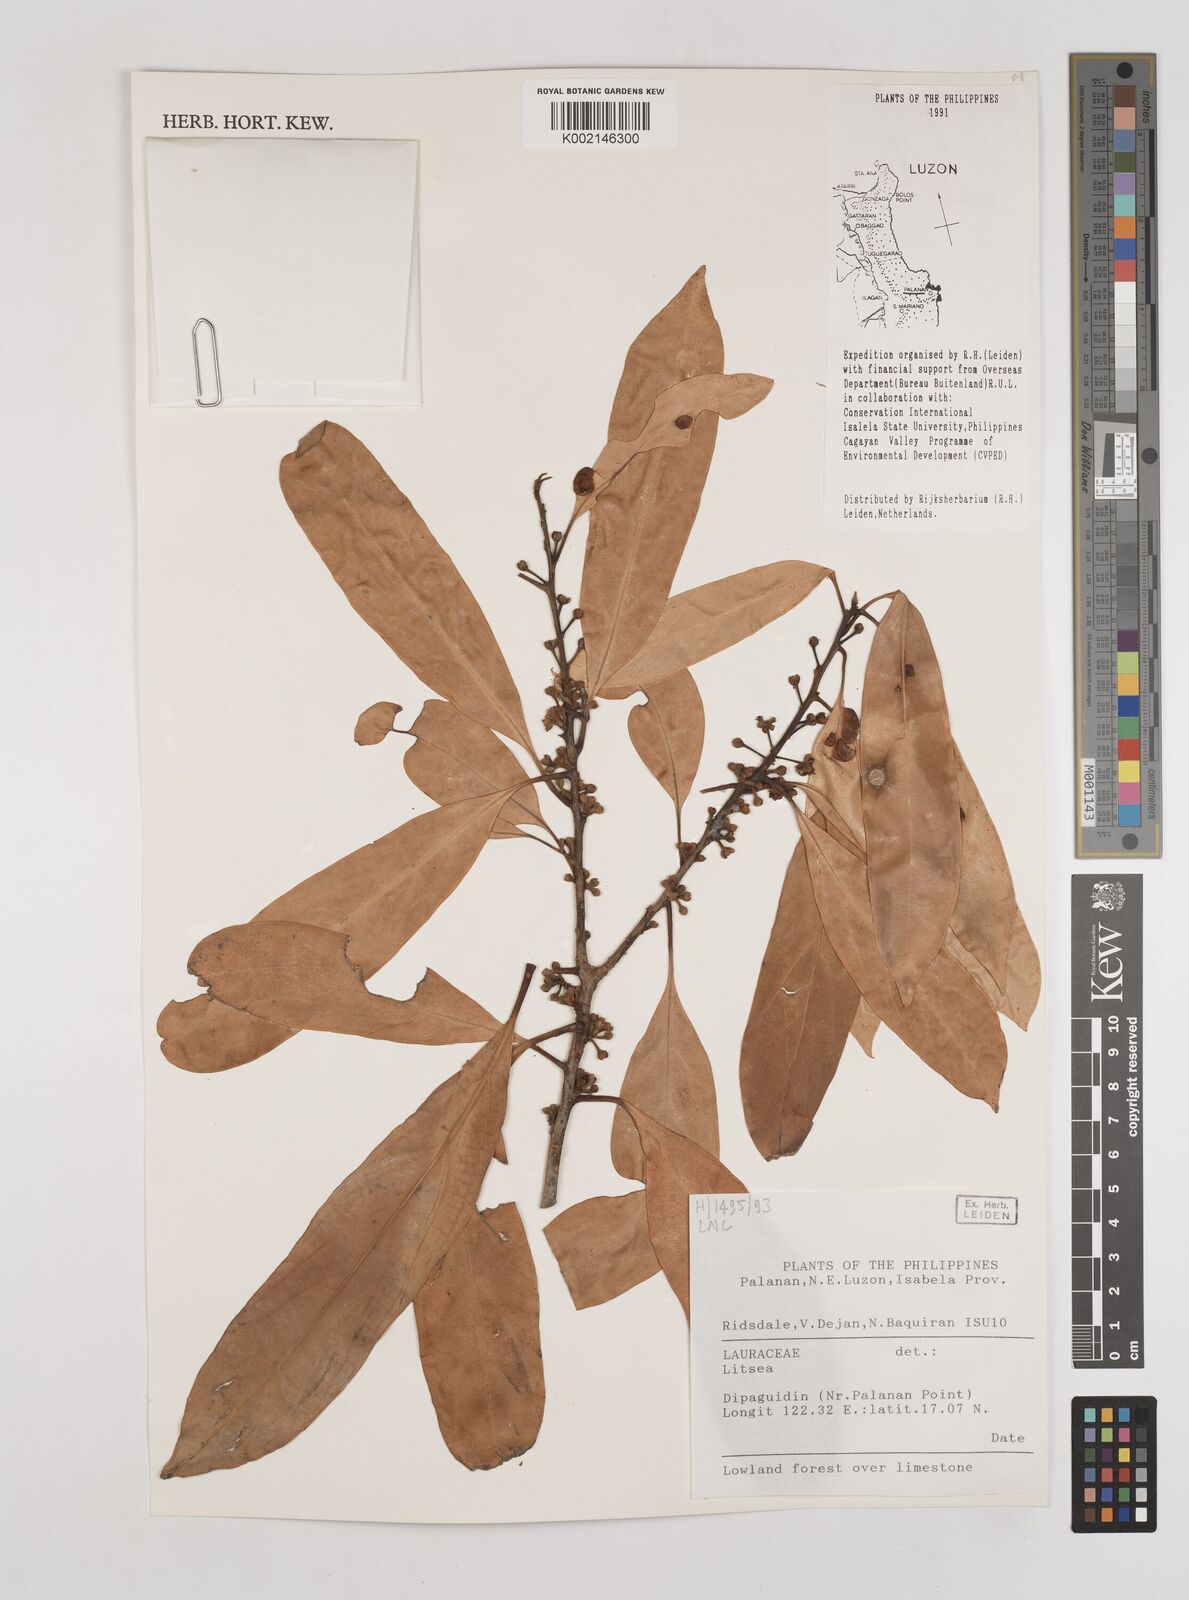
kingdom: Plantae
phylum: Tracheophyta
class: Magnoliopsida
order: Laurales
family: Lauraceae
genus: Litsea
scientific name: Litsea
